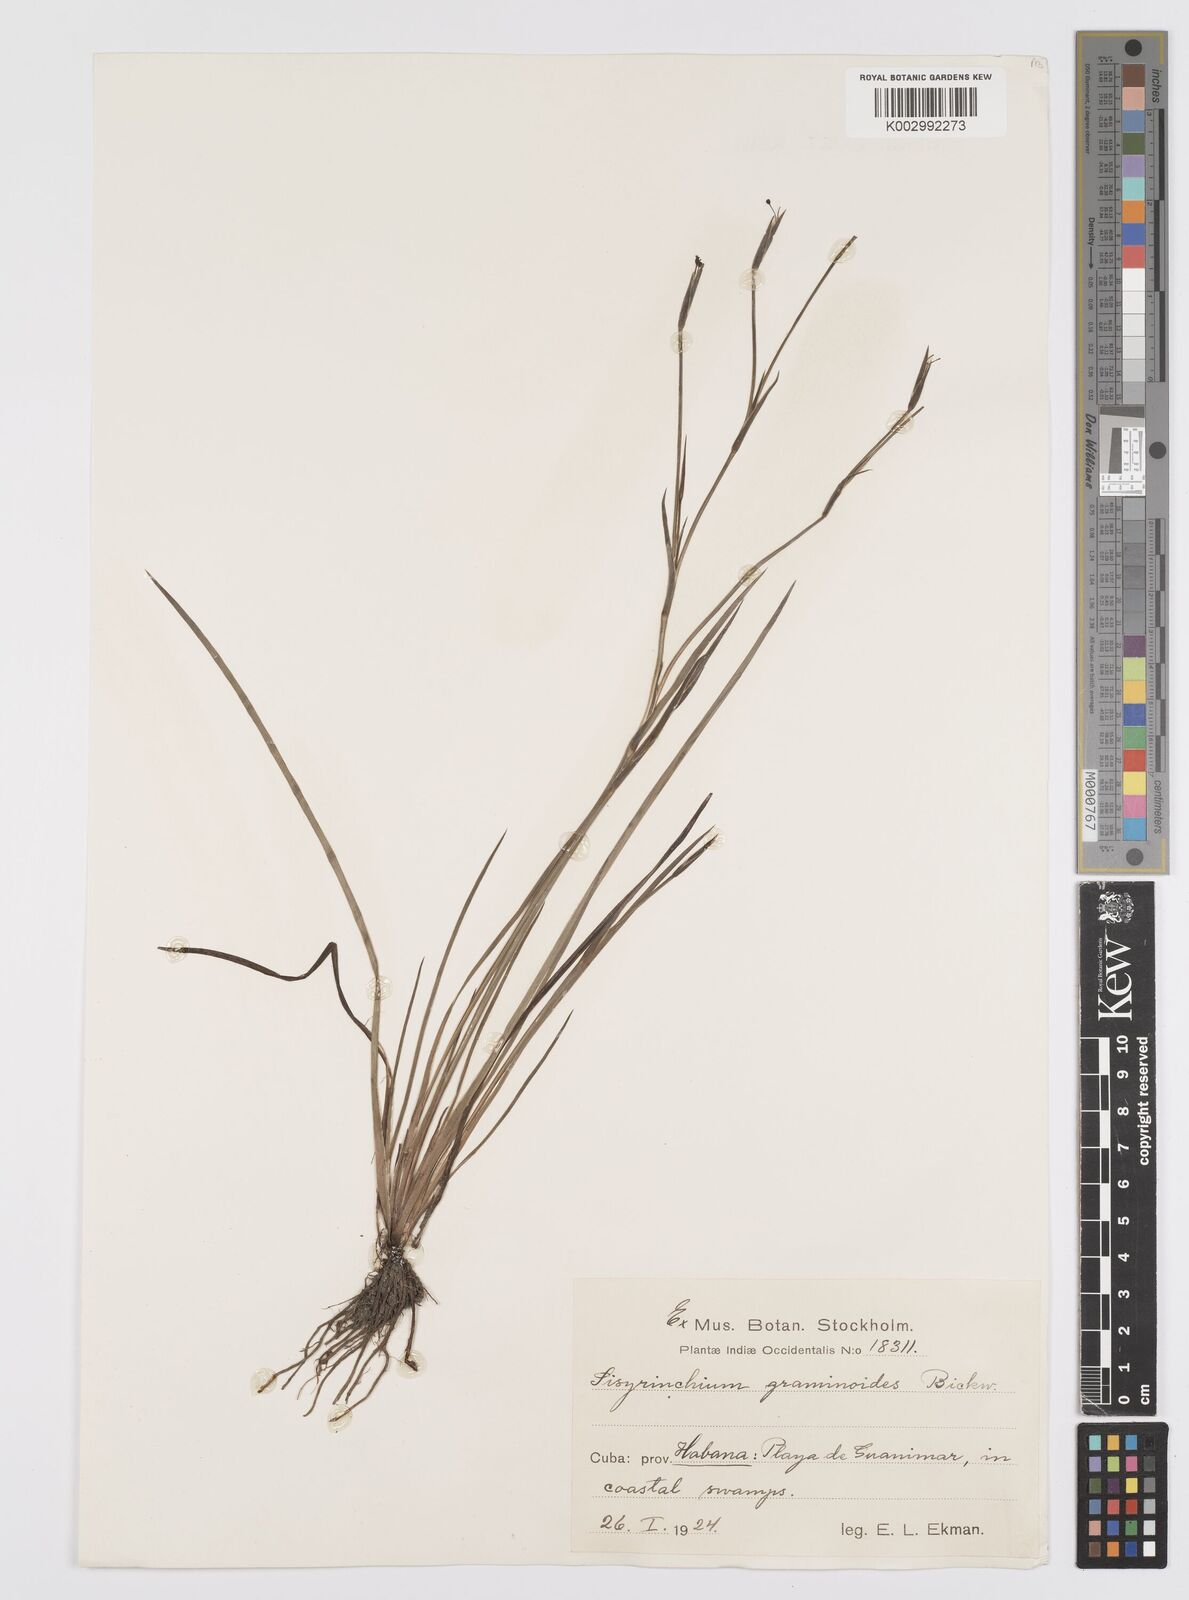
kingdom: Plantae
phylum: Tracheophyta
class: Liliopsida
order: Asparagales
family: Iridaceae
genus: Sisyrinchium
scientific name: Sisyrinchium angustifolium
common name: Narrow-leaf blue-eyed-grass
